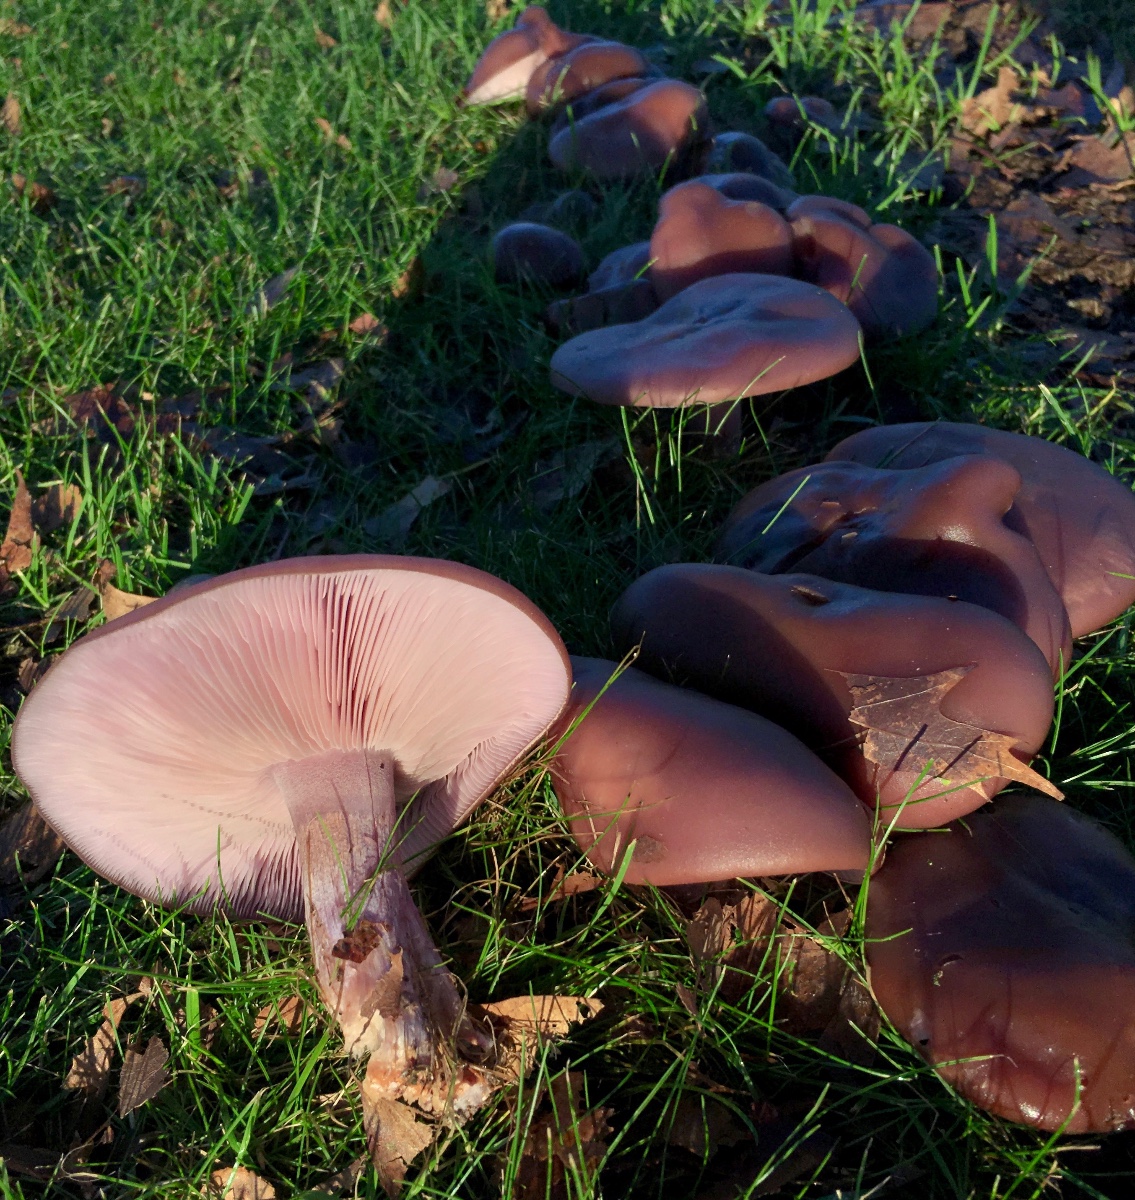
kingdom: Fungi
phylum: Basidiomycota
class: Agaricomycetes
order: Agaricales
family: Tricholomataceae
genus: Lepista
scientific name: Lepista nuda
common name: violet hekseringshat
